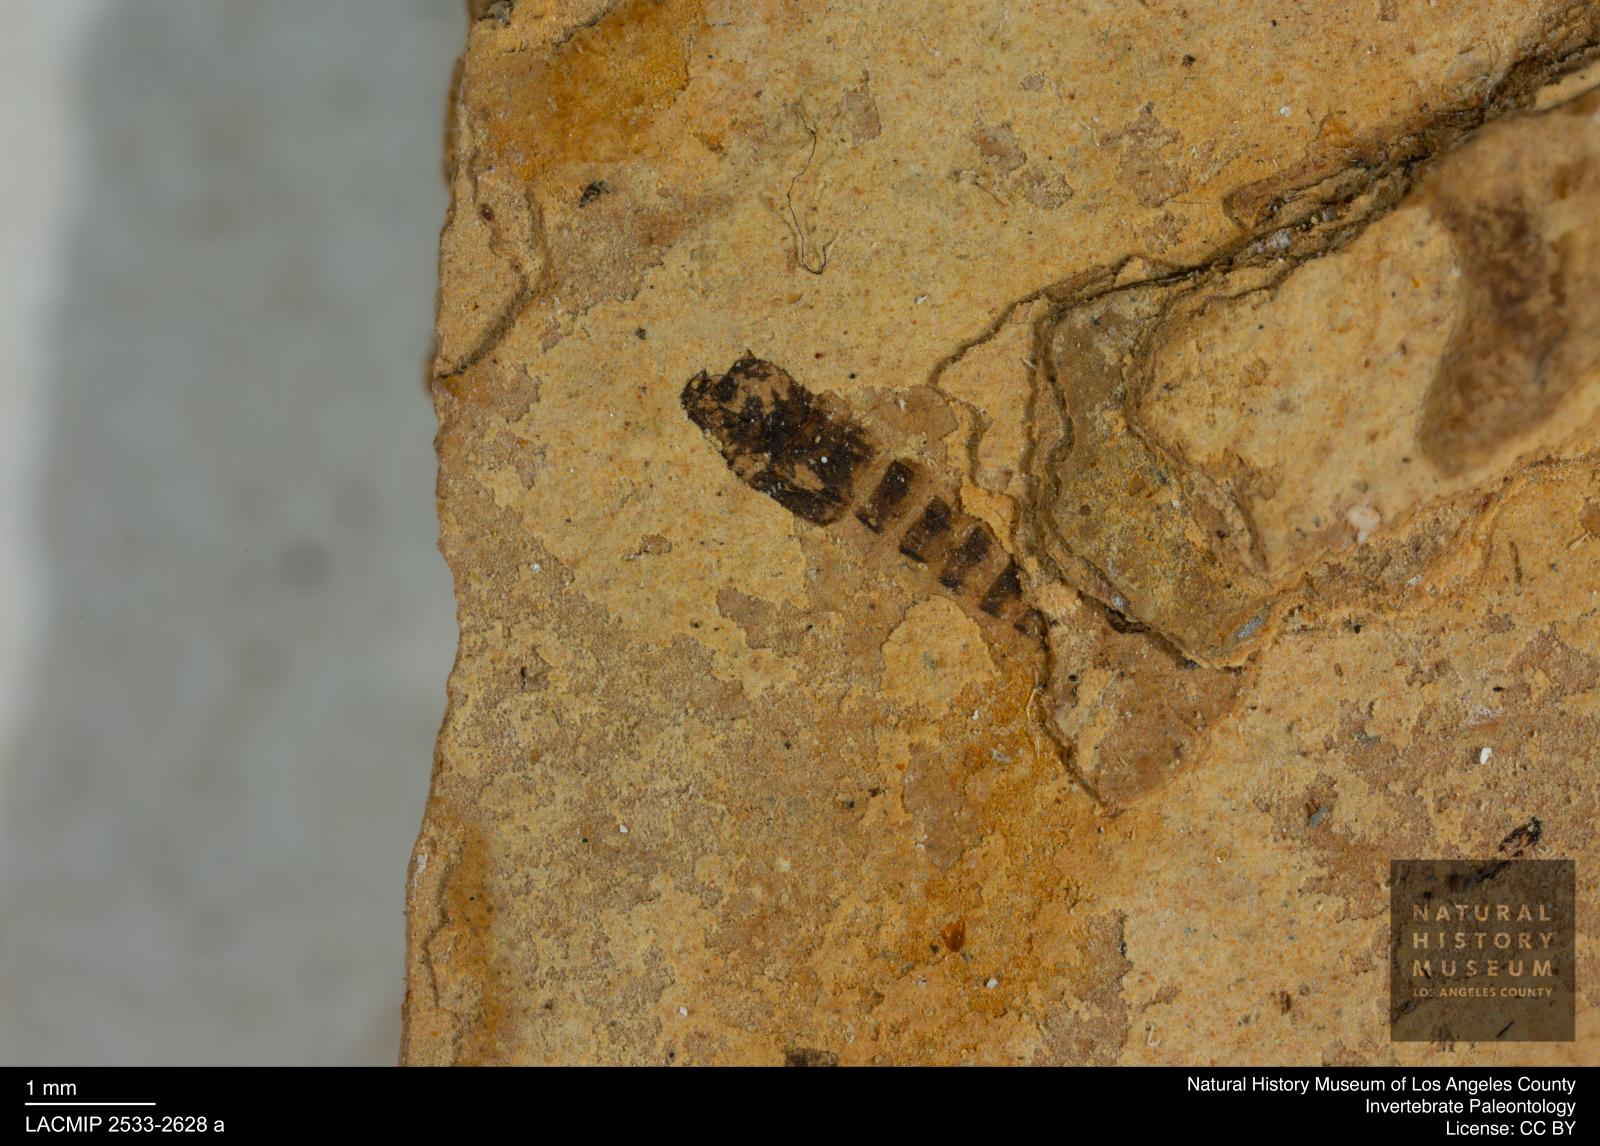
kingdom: Animalia
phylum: Arthropoda
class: Insecta
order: Hymenoptera
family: Formicidae
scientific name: Formicidae
